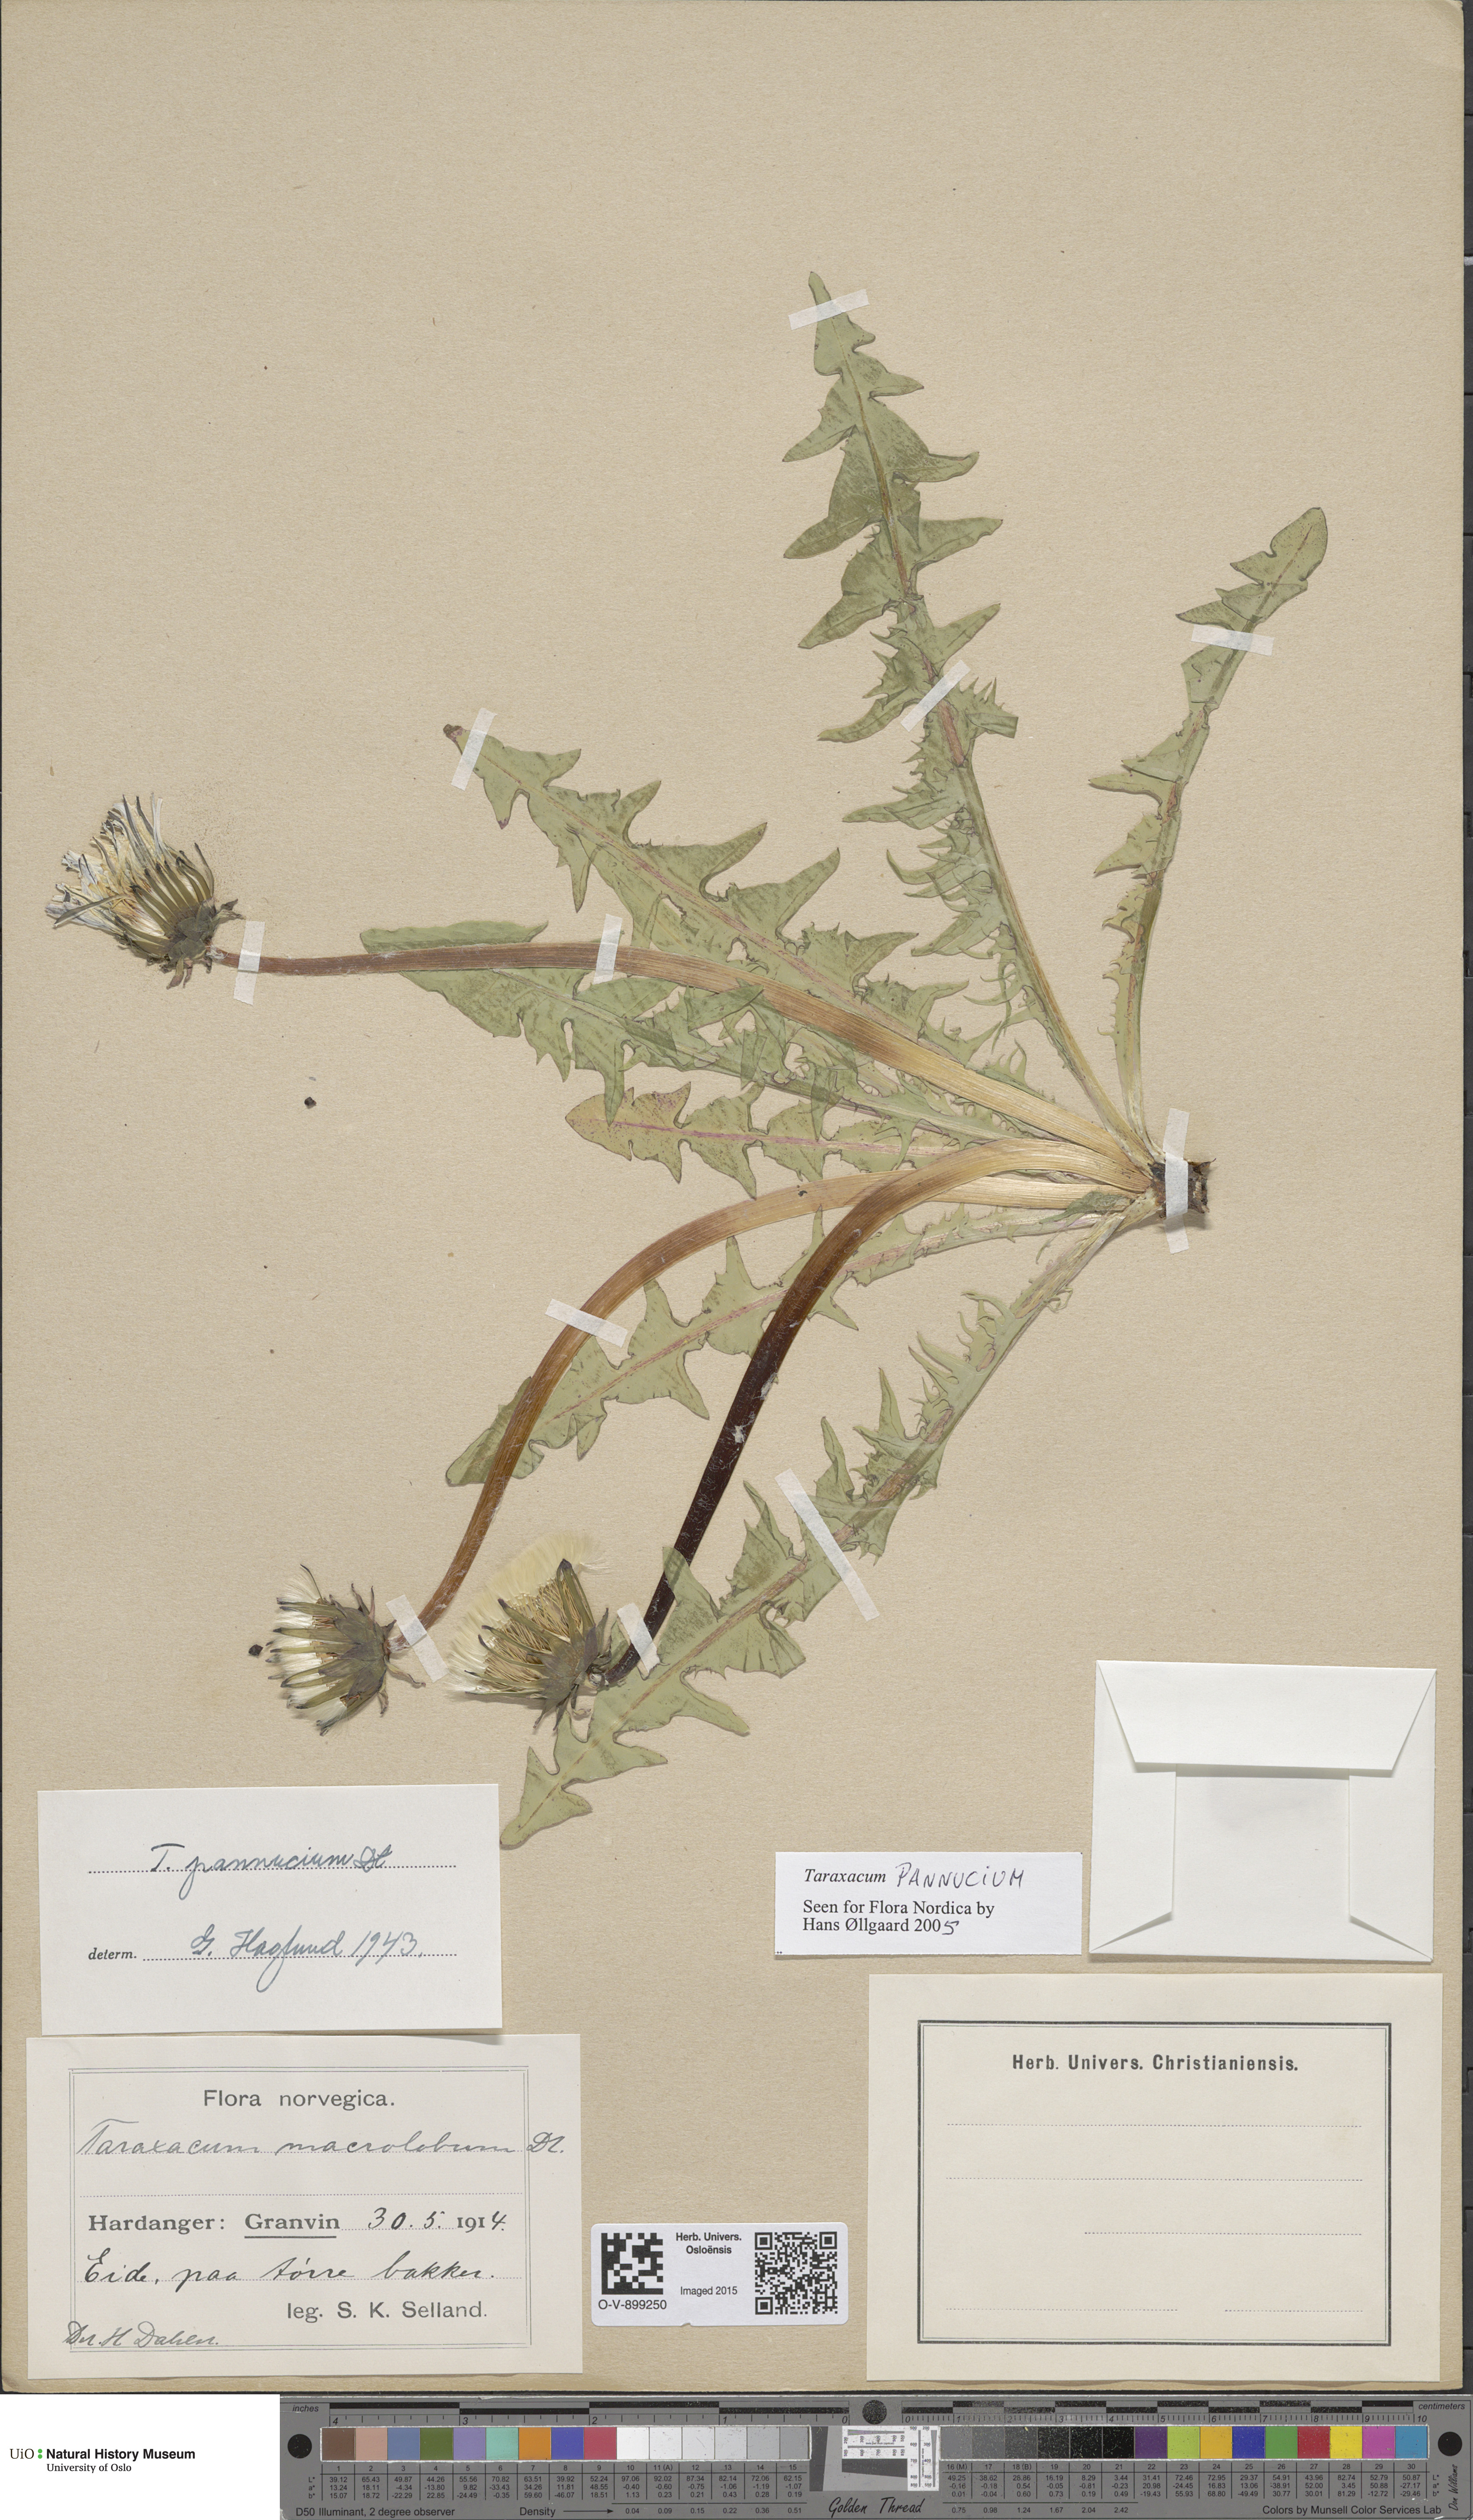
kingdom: Plantae
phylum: Tracheophyta
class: Magnoliopsida
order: Asterales
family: Asteraceae
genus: Taraxacum
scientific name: Taraxacum pannucium
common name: Green-stalked dandelion
